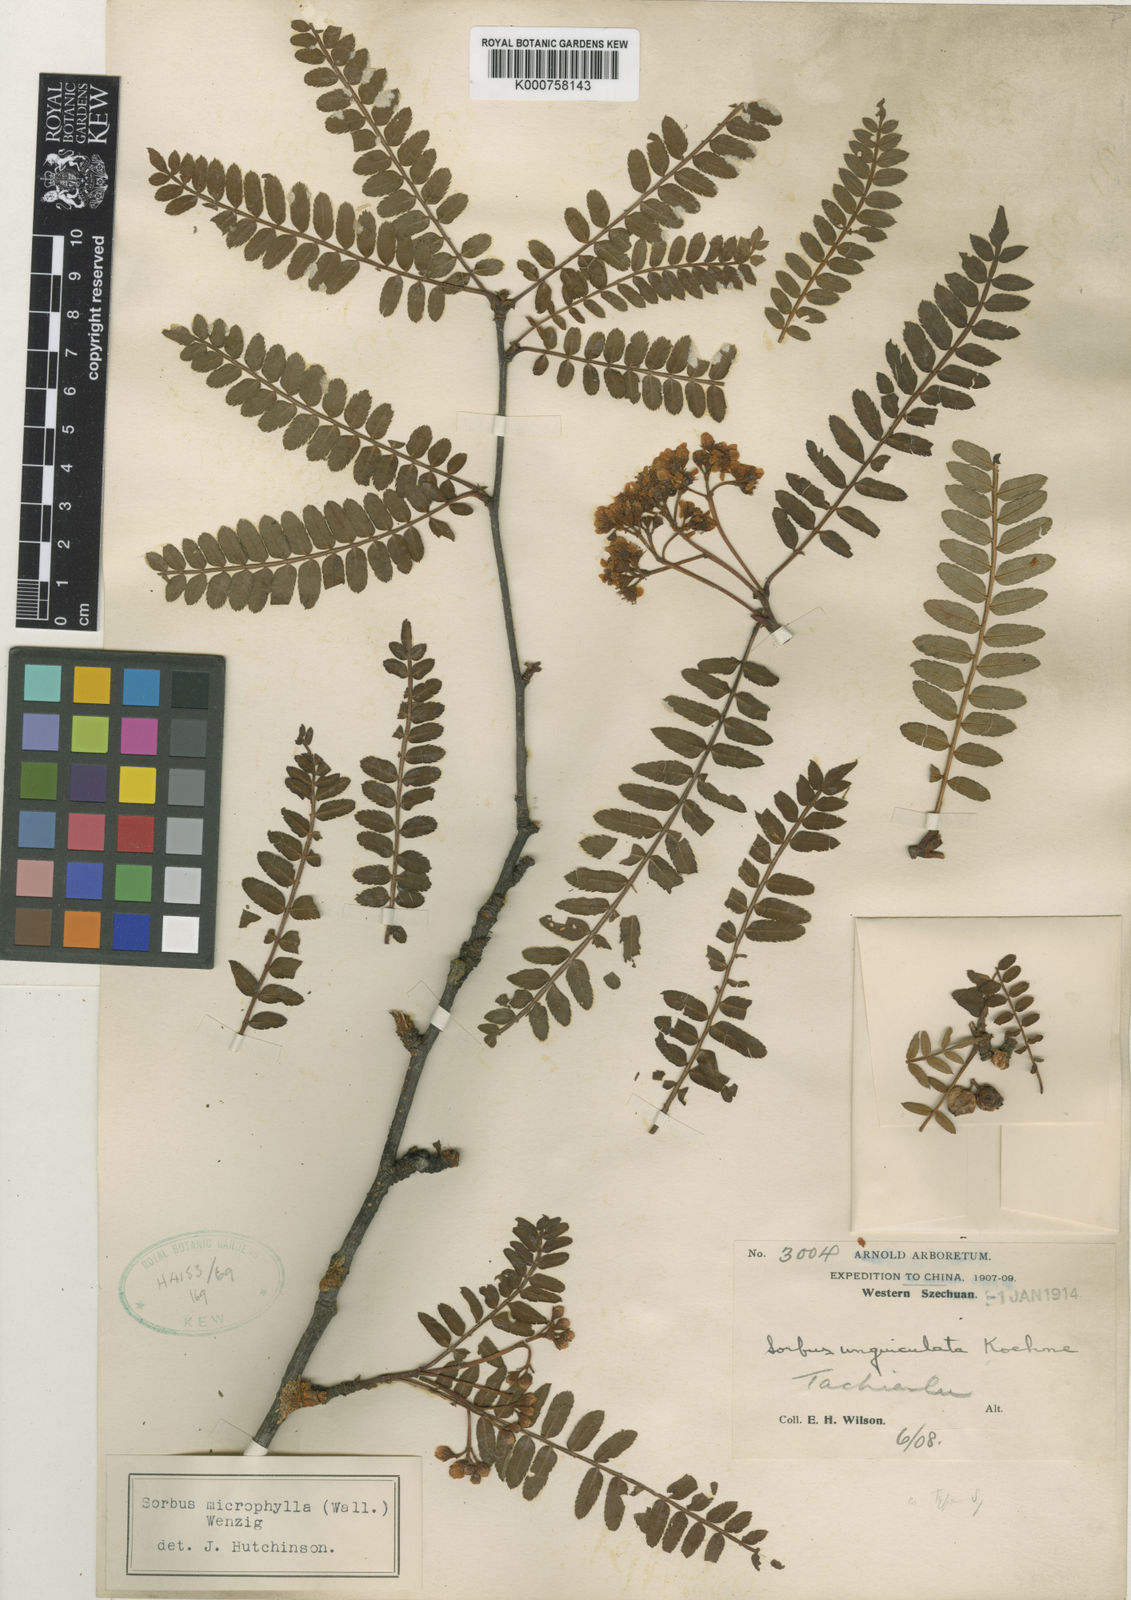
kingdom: Plantae
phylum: Tracheophyta
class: Magnoliopsida
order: Rosales
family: Rosaceae
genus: Sorbus
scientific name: Sorbus
